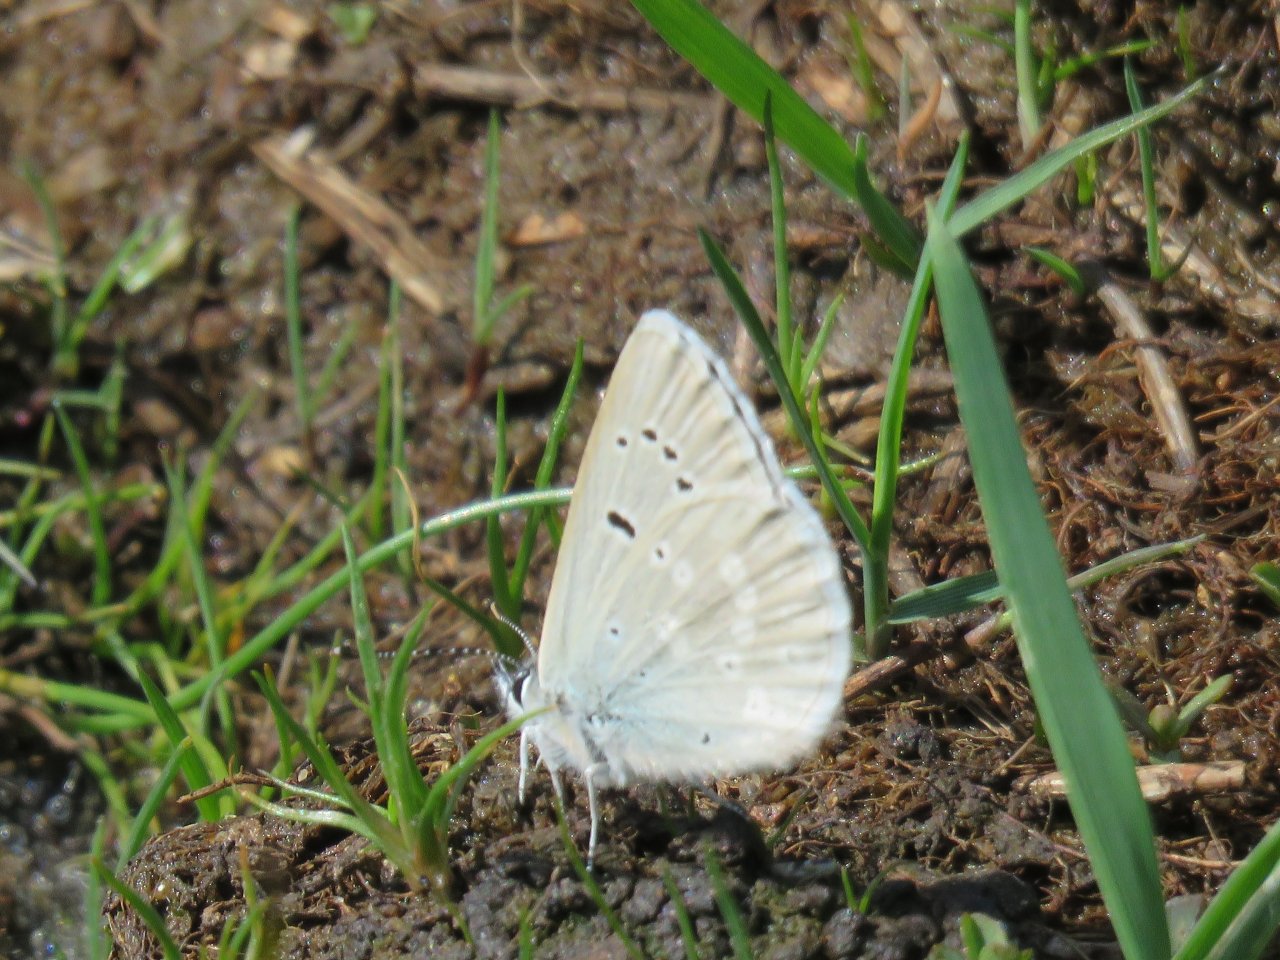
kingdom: Animalia
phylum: Arthropoda
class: Insecta
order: Lepidoptera
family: Lycaenidae
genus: Icaricia
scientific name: Icaricia icarioides
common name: Boisduval's Blue
